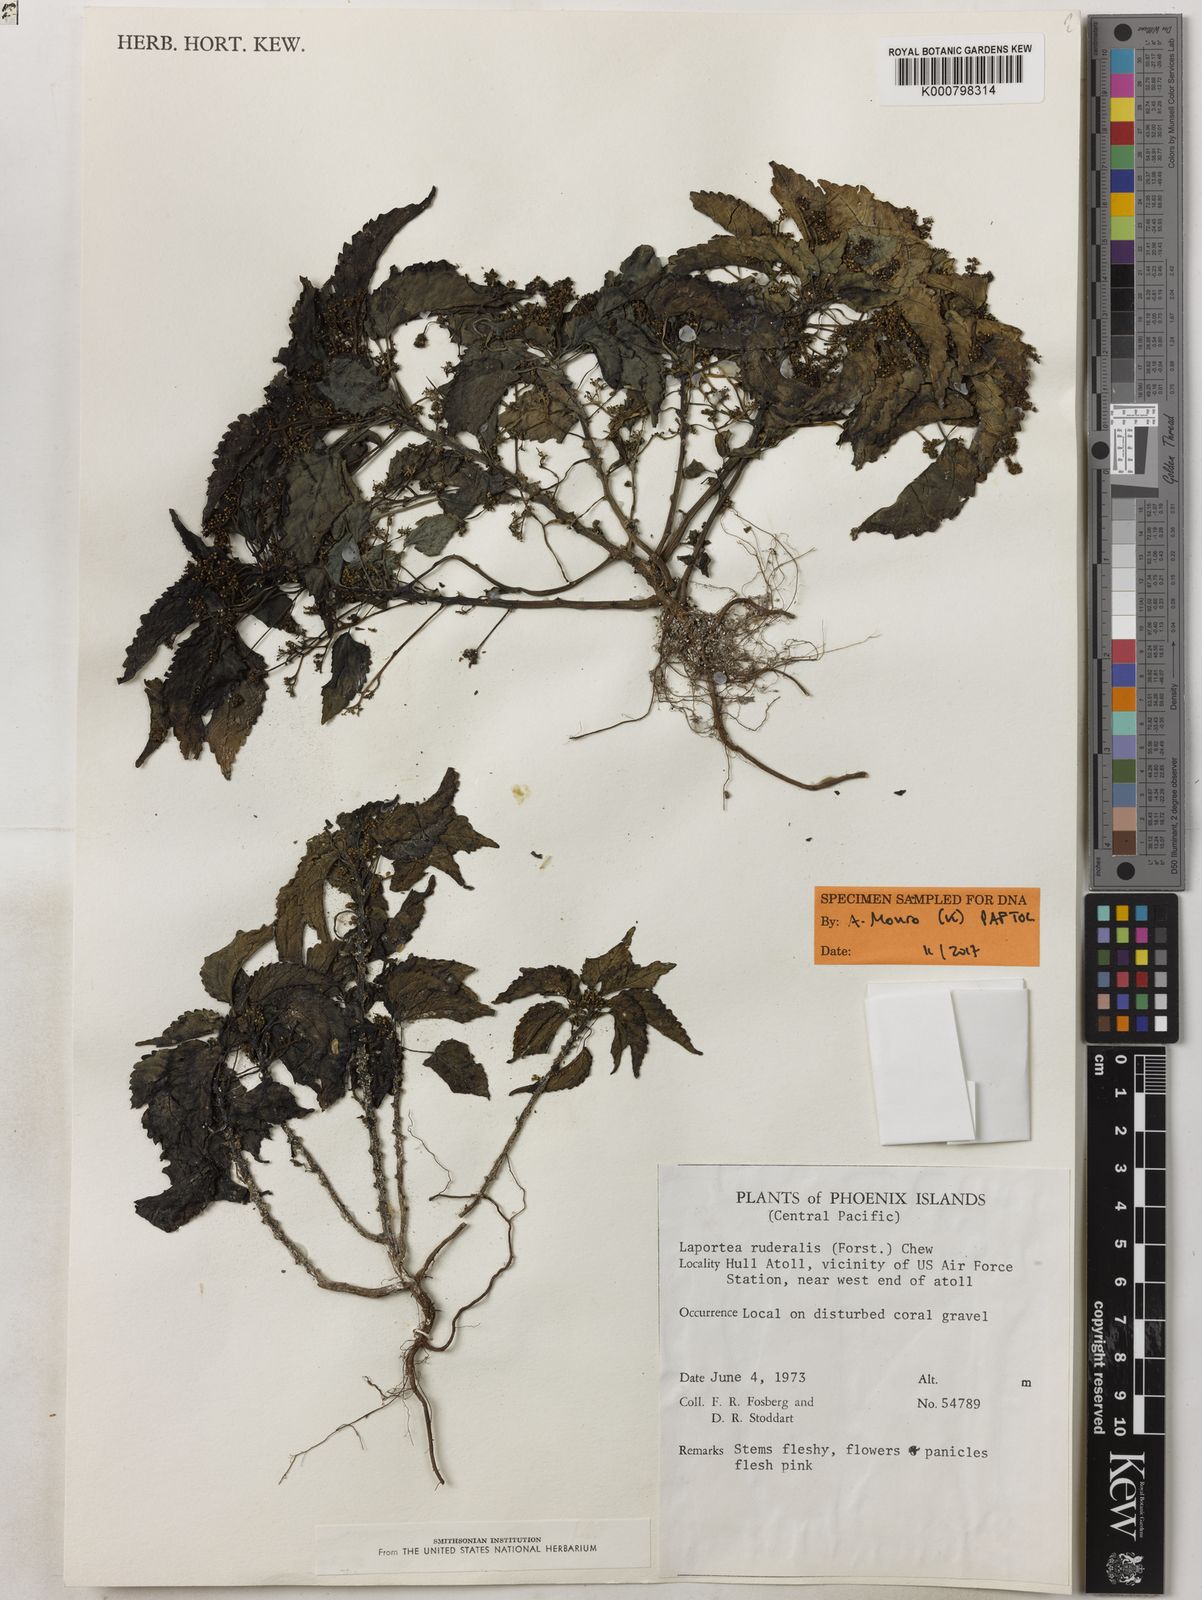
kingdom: Plantae
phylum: Tracheophyta
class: Magnoliopsida
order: Rosales
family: Urticaceae
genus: Laportea
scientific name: Laportea ruderalis
